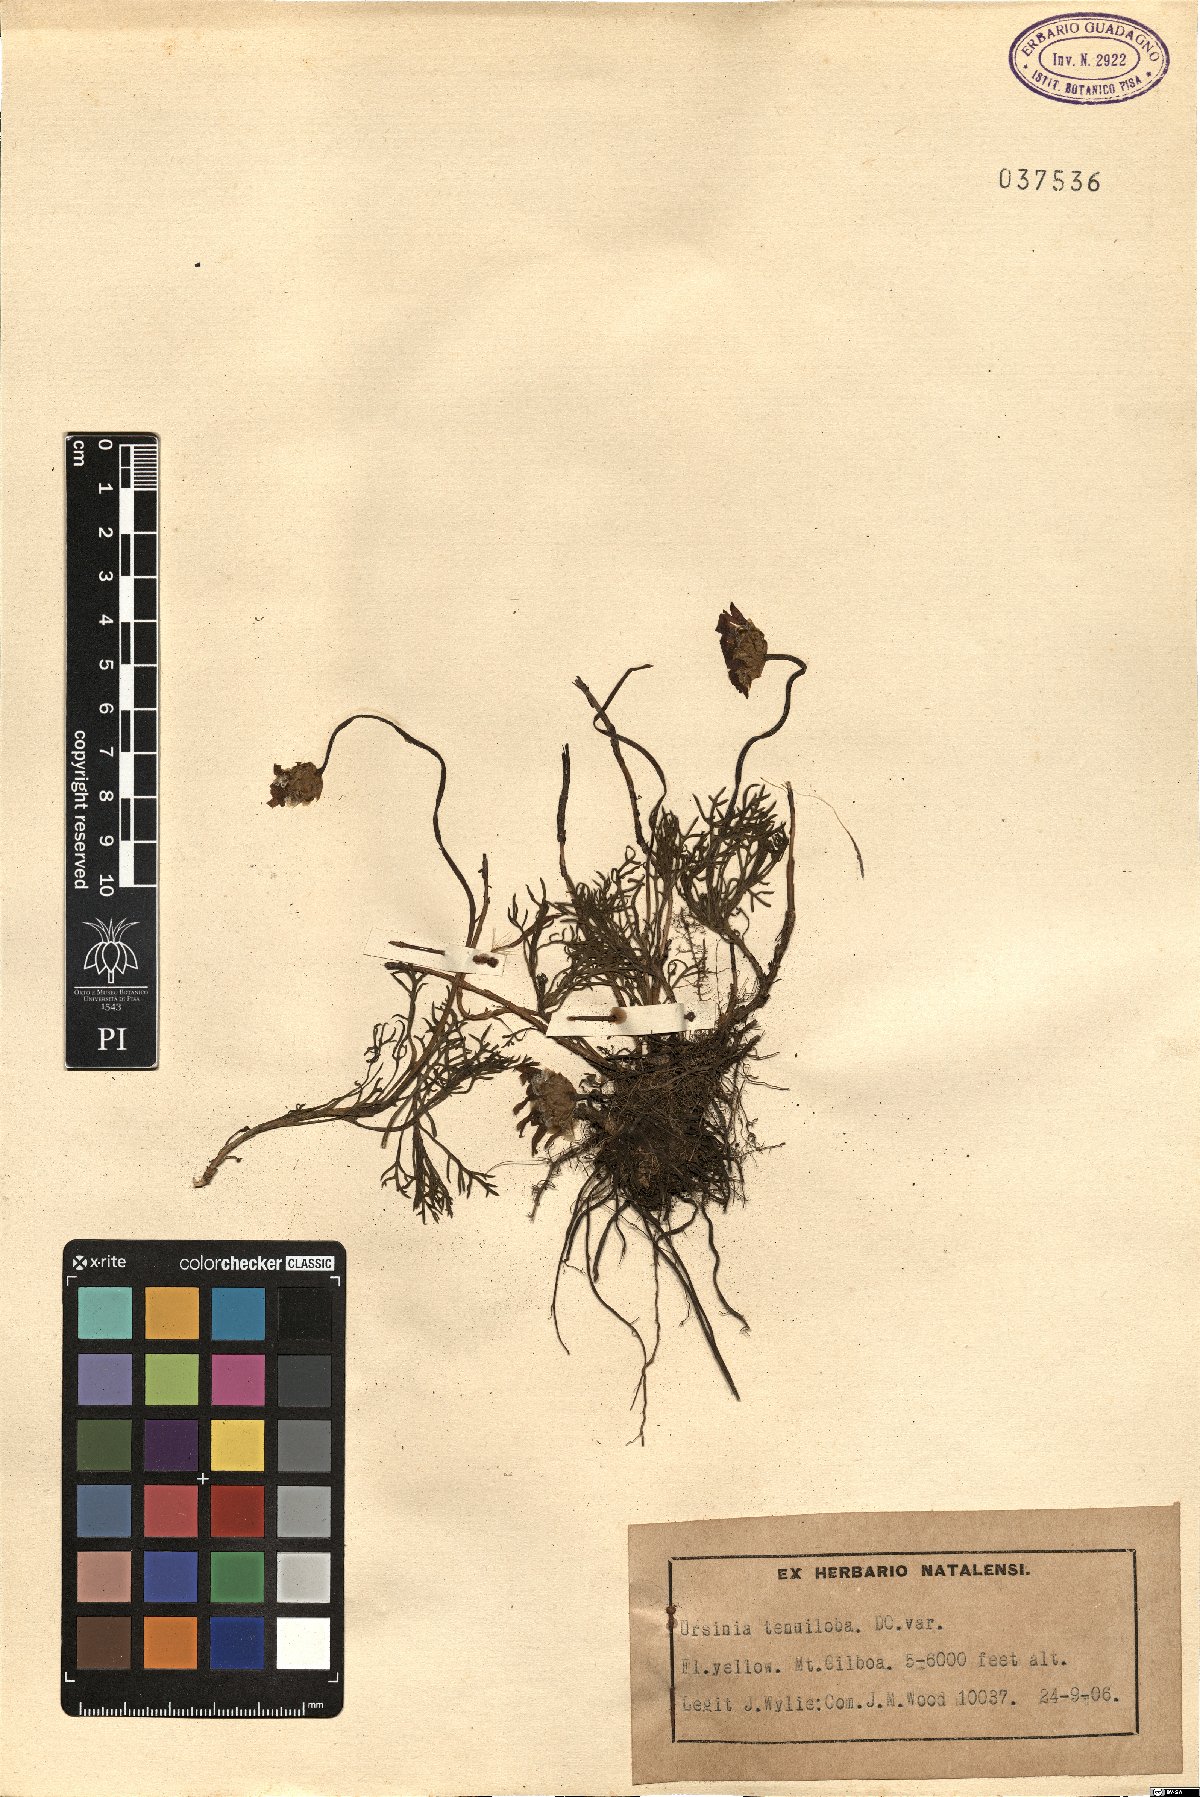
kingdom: Plantae
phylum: Tracheophyta
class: Magnoliopsida
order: Asterales
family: Asteraceae
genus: Ursinia
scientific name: Ursinia tenuiloba
